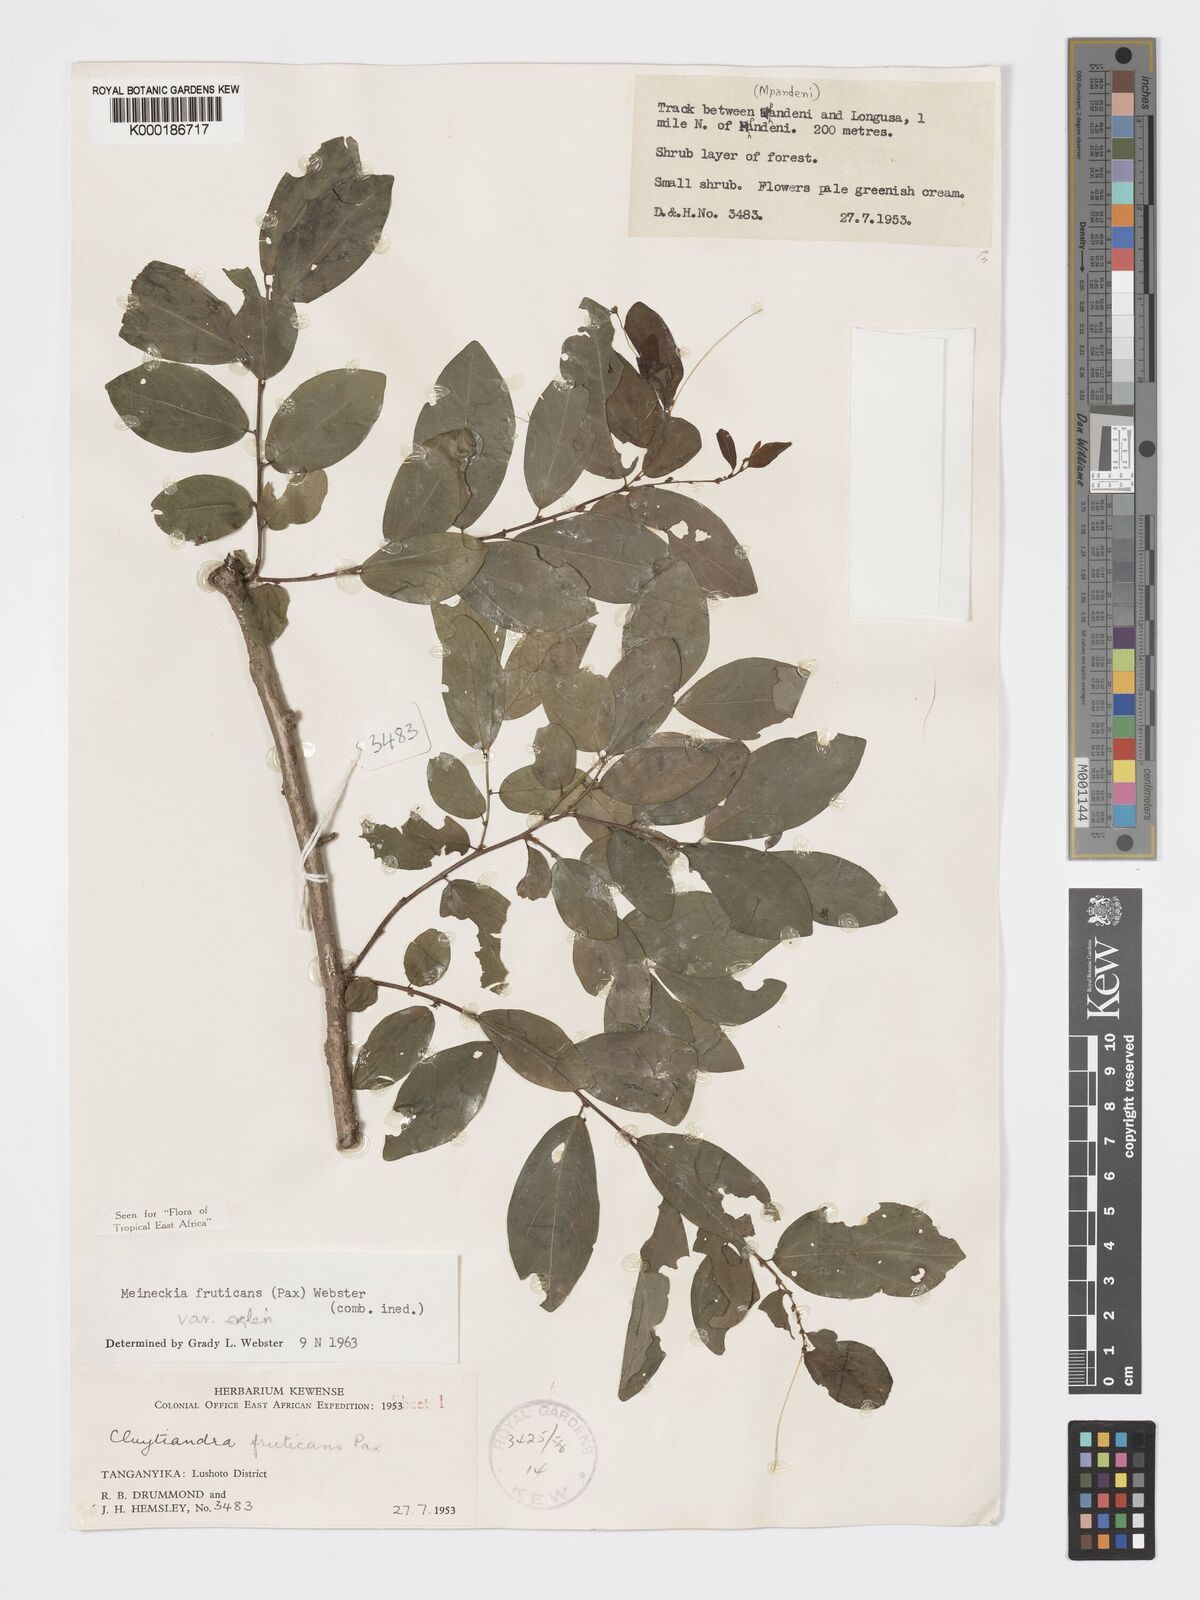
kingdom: Plantae
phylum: Tracheophyta
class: Magnoliopsida
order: Malpighiales
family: Phyllanthaceae
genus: Meineckia
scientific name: Meineckia fruticans
